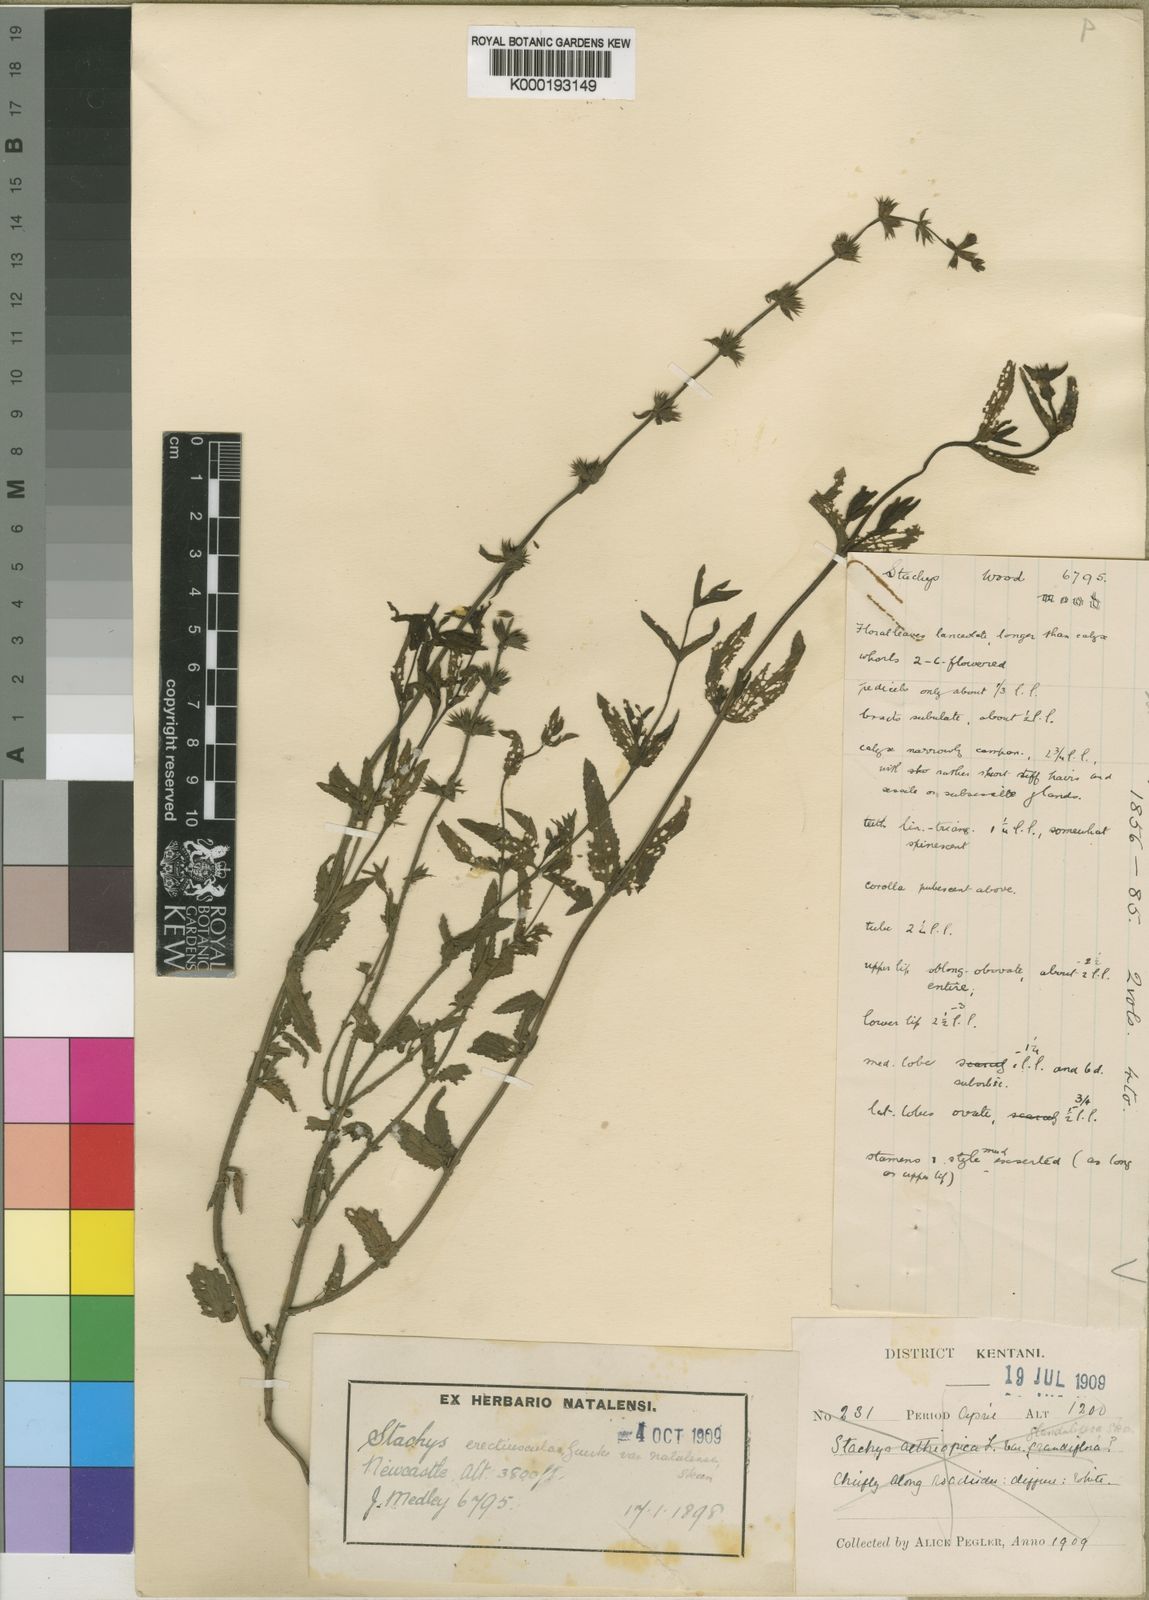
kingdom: Plantae
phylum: Tracheophyta
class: Magnoliopsida
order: Lamiales
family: Lamiaceae
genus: Stachys
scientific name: Stachys
